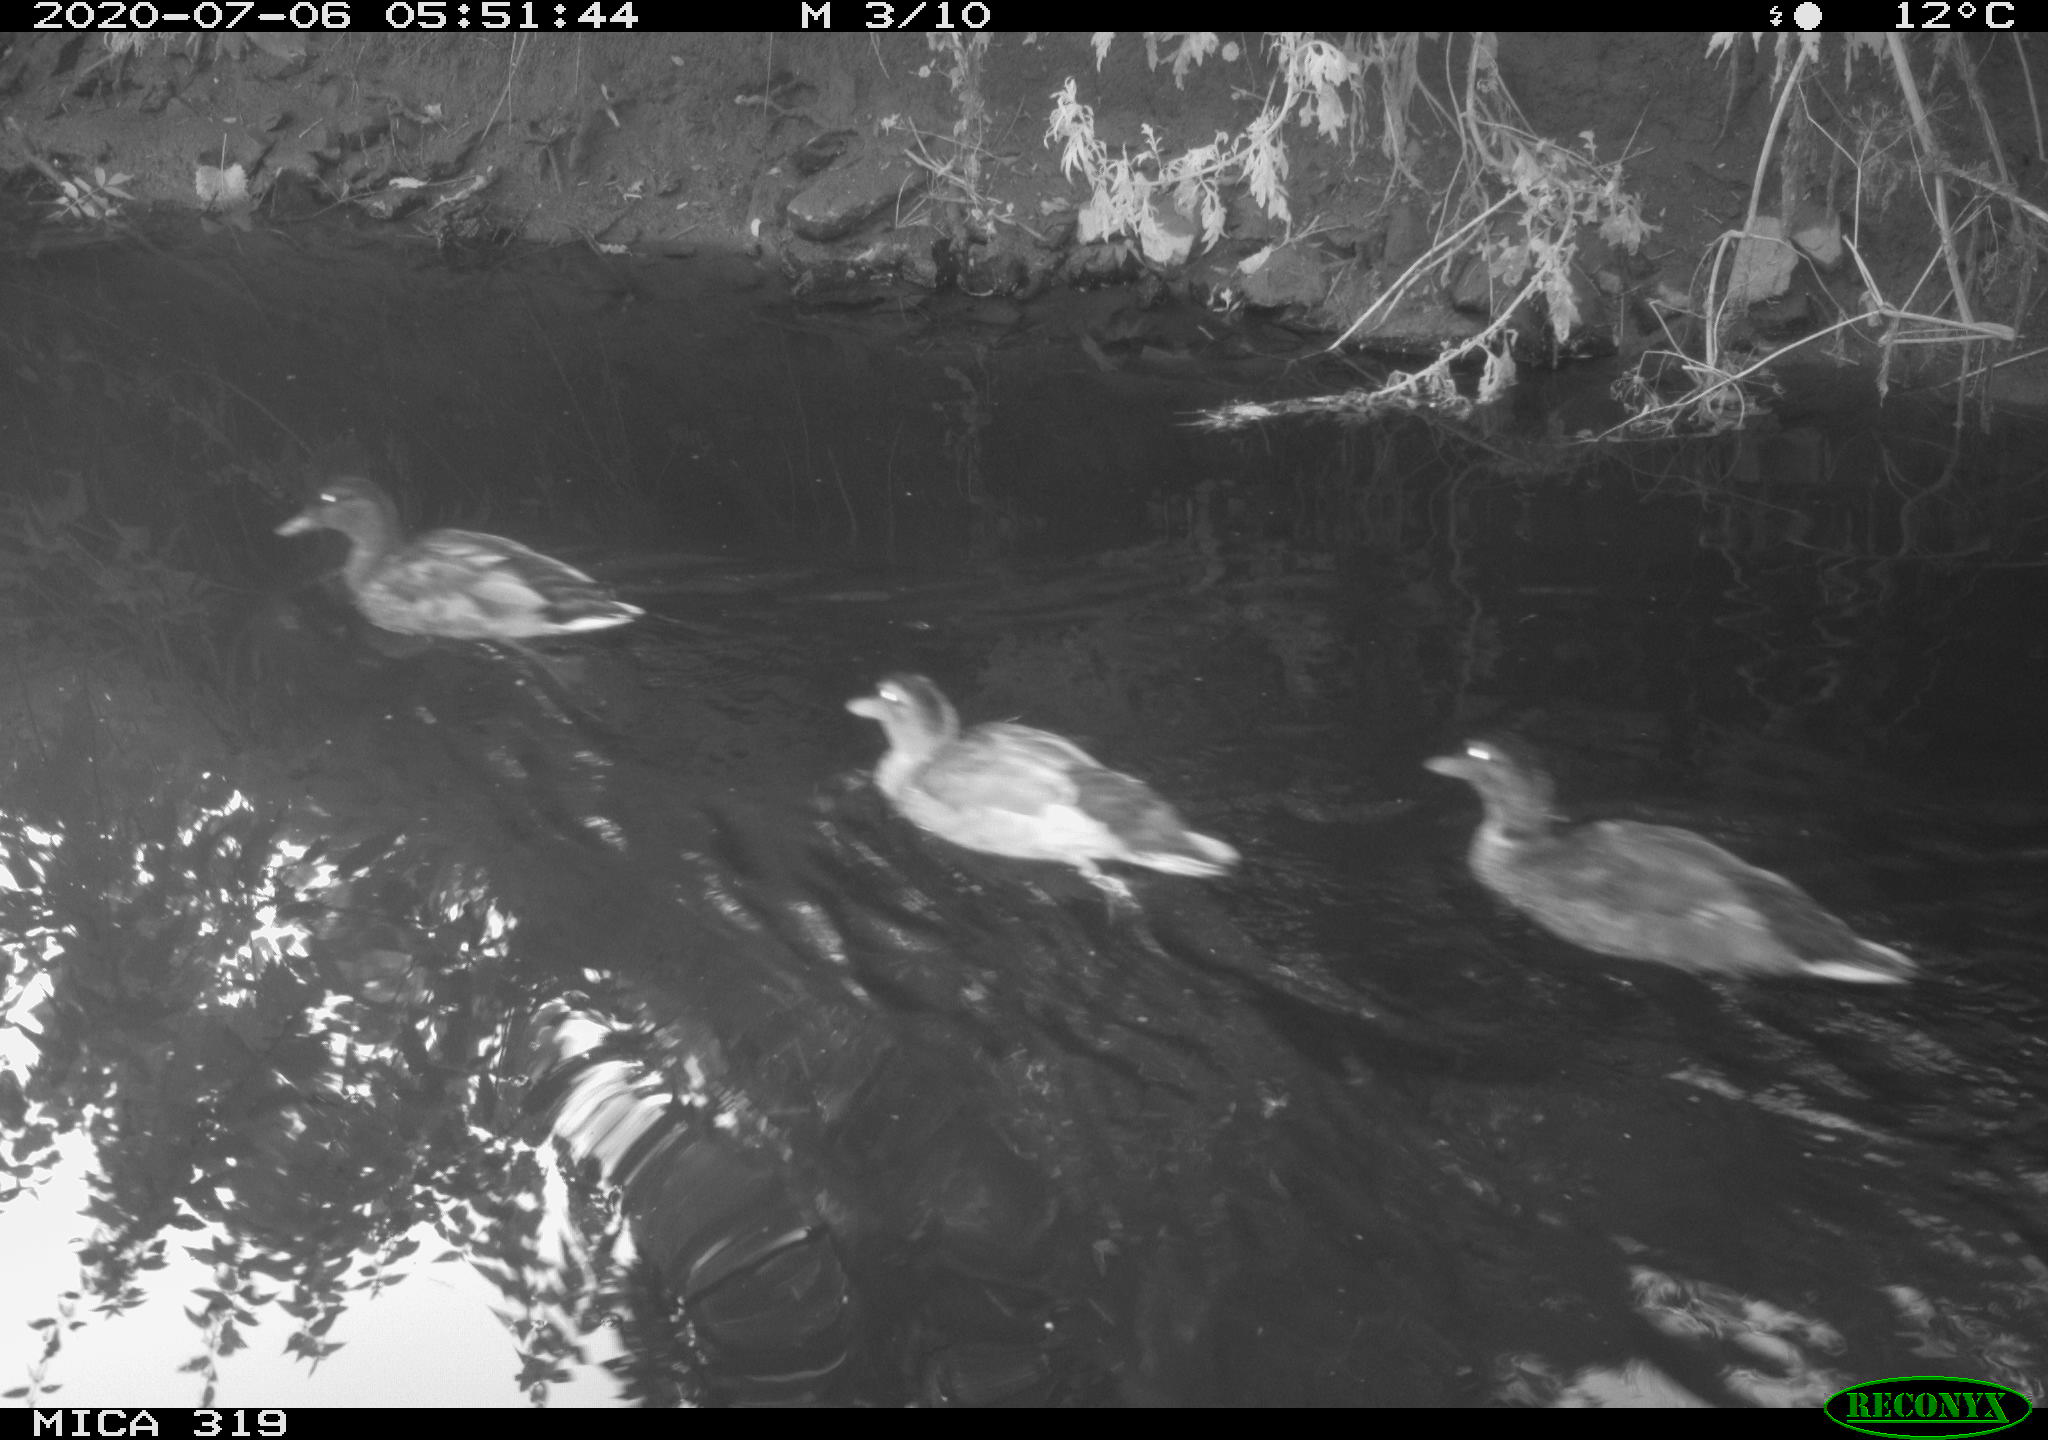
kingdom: Animalia
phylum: Chordata
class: Aves
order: Anseriformes
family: Anatidae
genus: Anas
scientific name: Anas platyrhynchos
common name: Mallard
